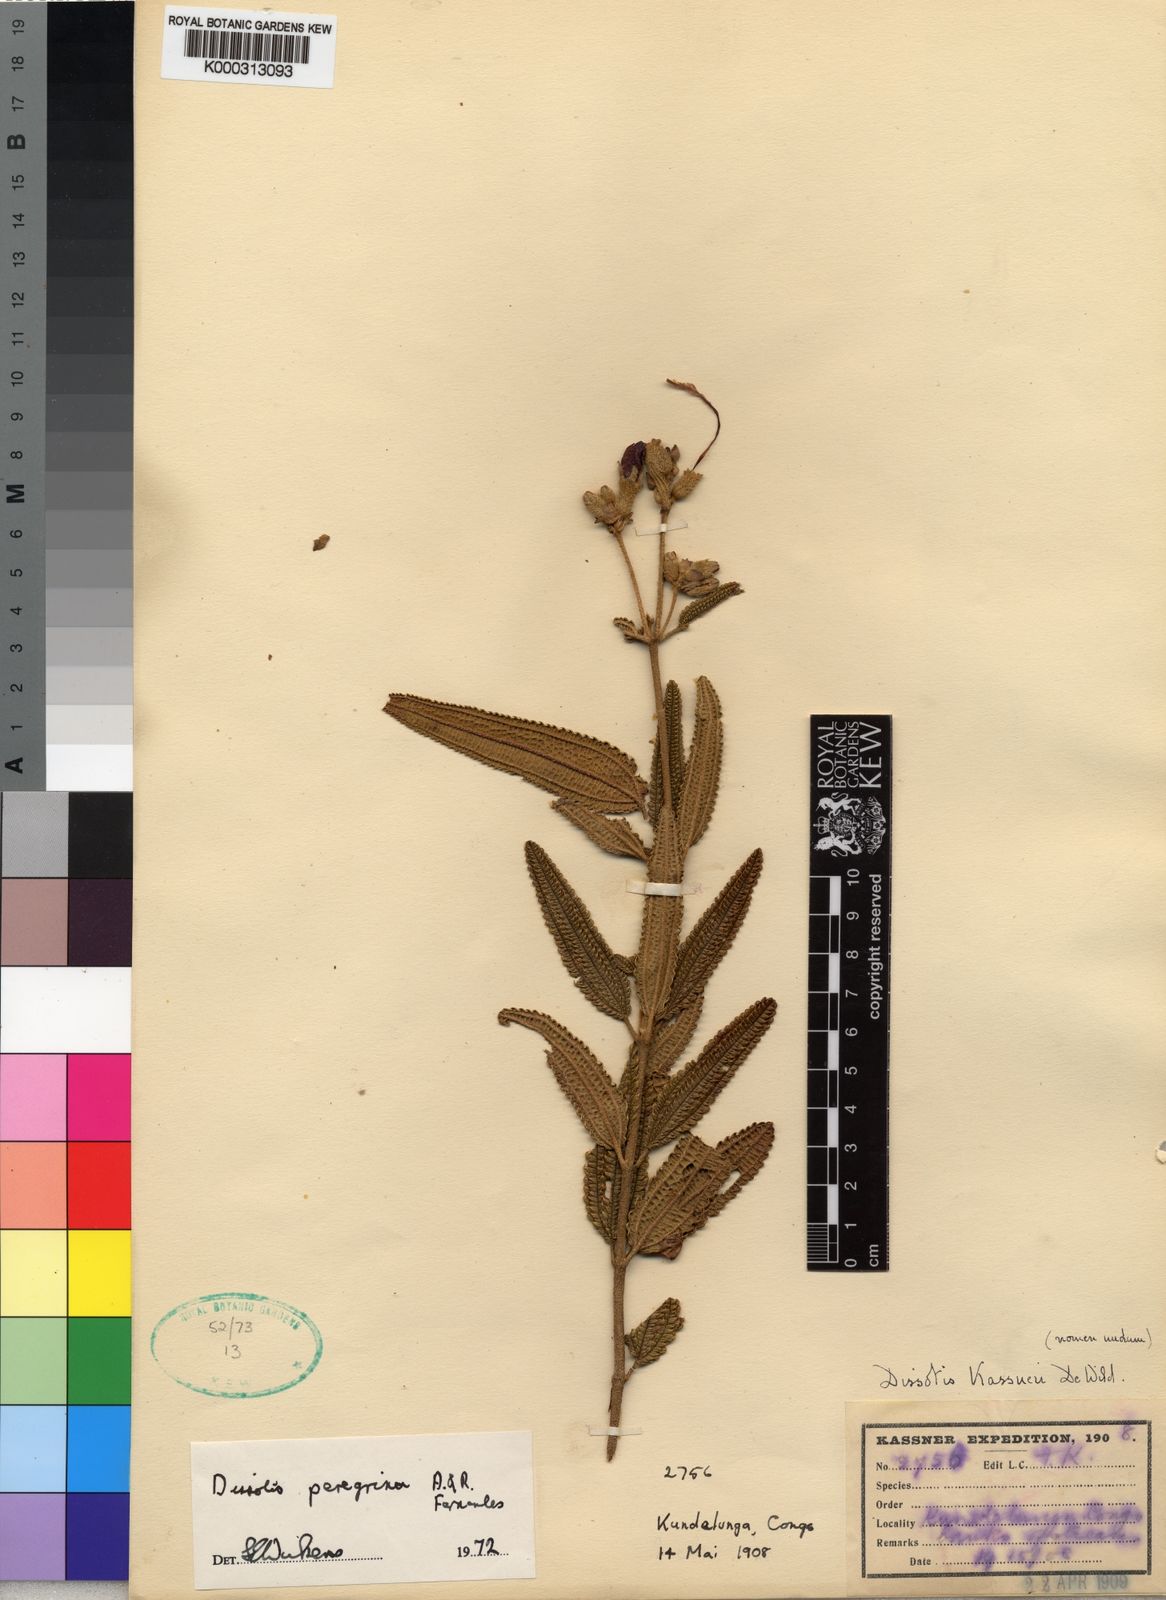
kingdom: Plantae
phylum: Tracheophyta
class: Magnoliopsida
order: Myrtales
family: Melastomataceae
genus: Rosettea
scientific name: Rosettea peregrina
